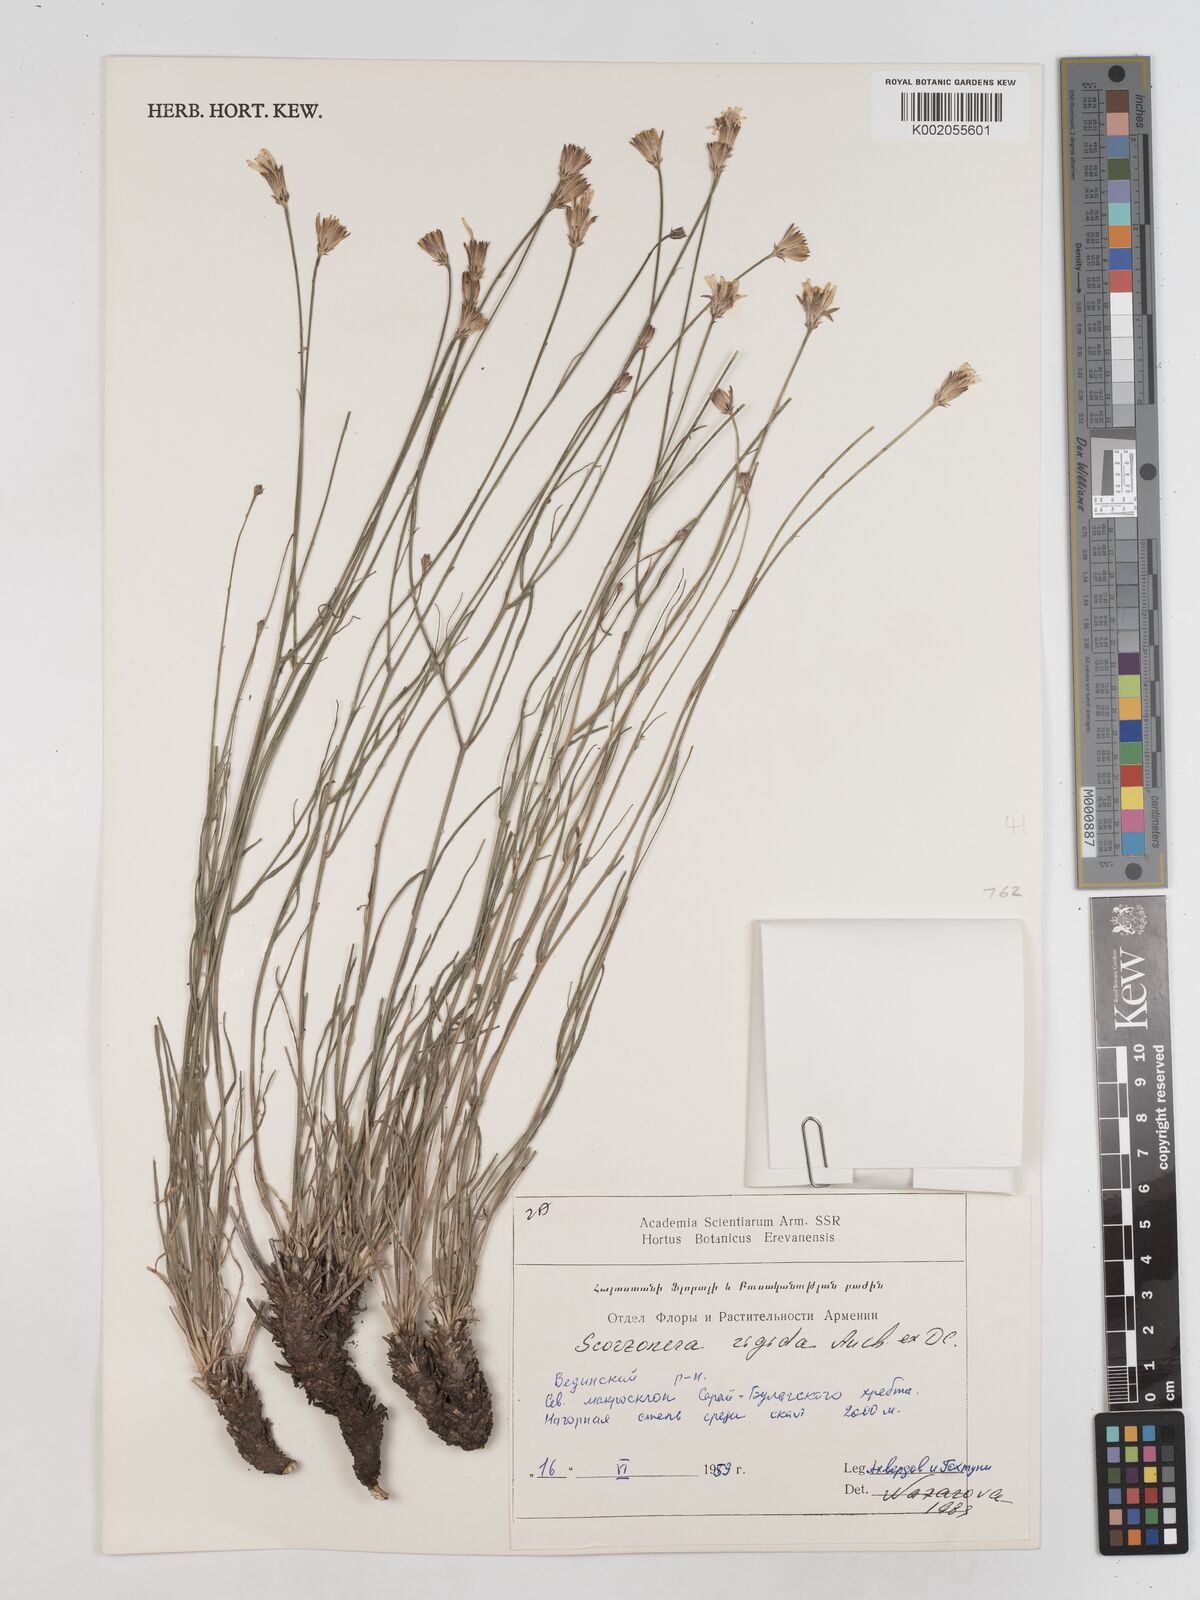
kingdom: Plantae
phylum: Tracheophyta
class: Magnoliopsida
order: Asterales
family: Asteraceae
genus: Goekyighitia
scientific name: Goekyighitia rigida
